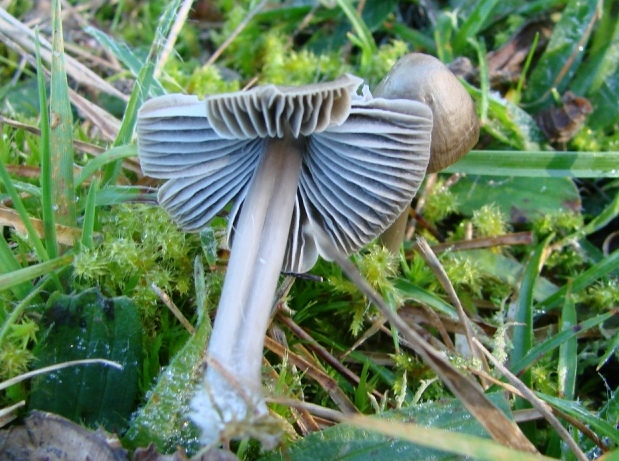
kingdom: Fungi
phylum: Basidiomycota
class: Agaricomycetes
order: Agaricales
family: Mycenaceae
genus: Mycena
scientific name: Mycena aetites
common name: plæne-huesvamp
